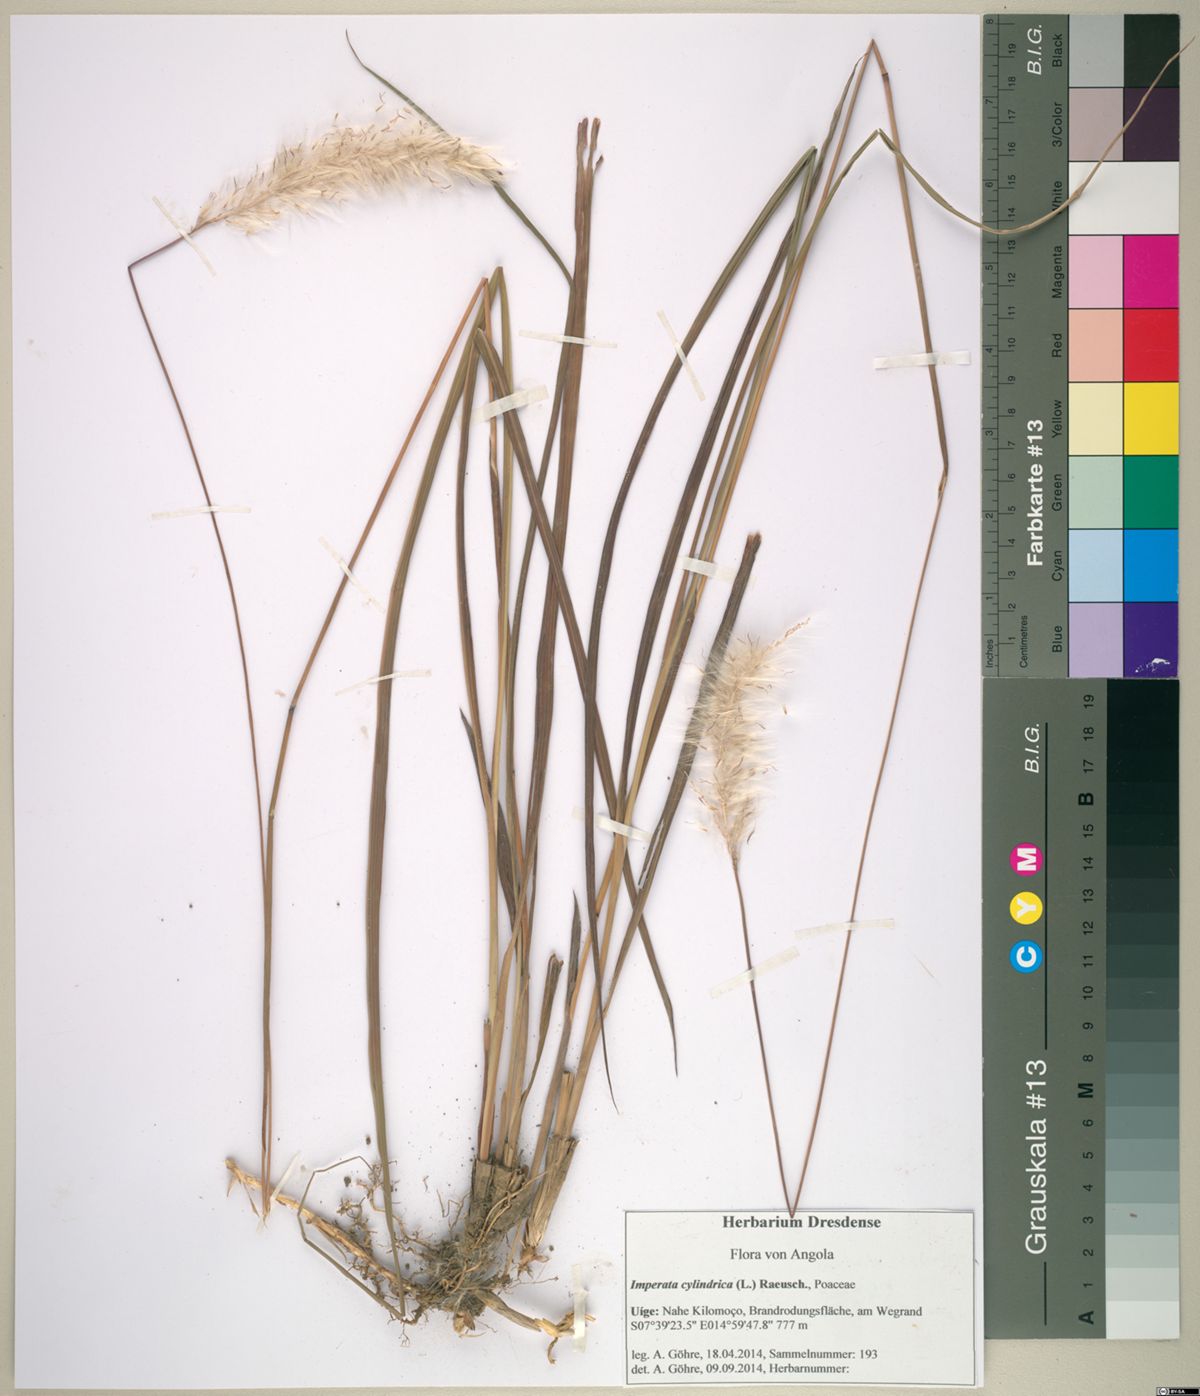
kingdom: Plantae
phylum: Tracheophyta
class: Liliopsida
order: Poales
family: Poaceae
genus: Imperata
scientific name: Imperata cylindrica
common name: Cogongrass
